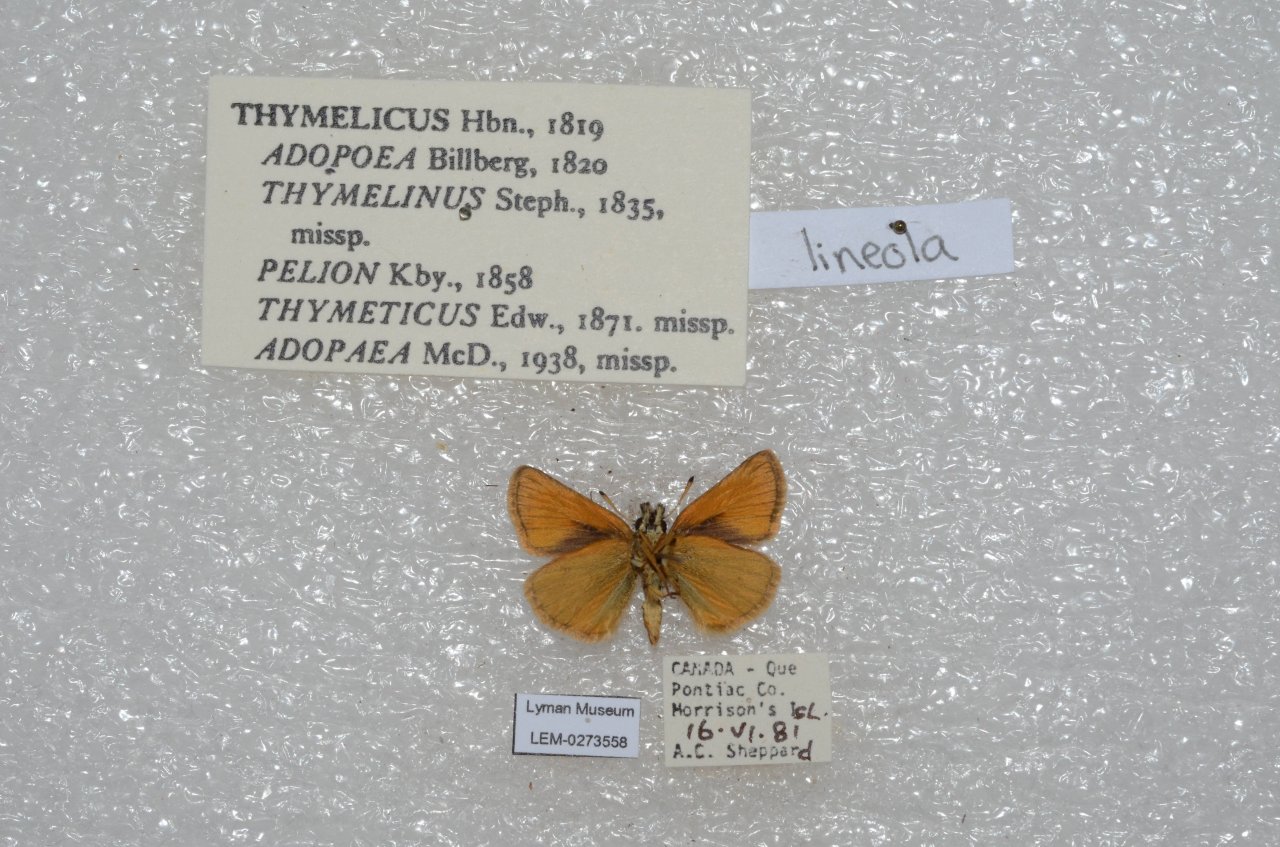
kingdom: Animalia
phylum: Arthropoda
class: Insecta
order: Lepidoptera
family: Hesperiidae
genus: Thymelicus
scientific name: Thymelicus lineola
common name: European Skipper
